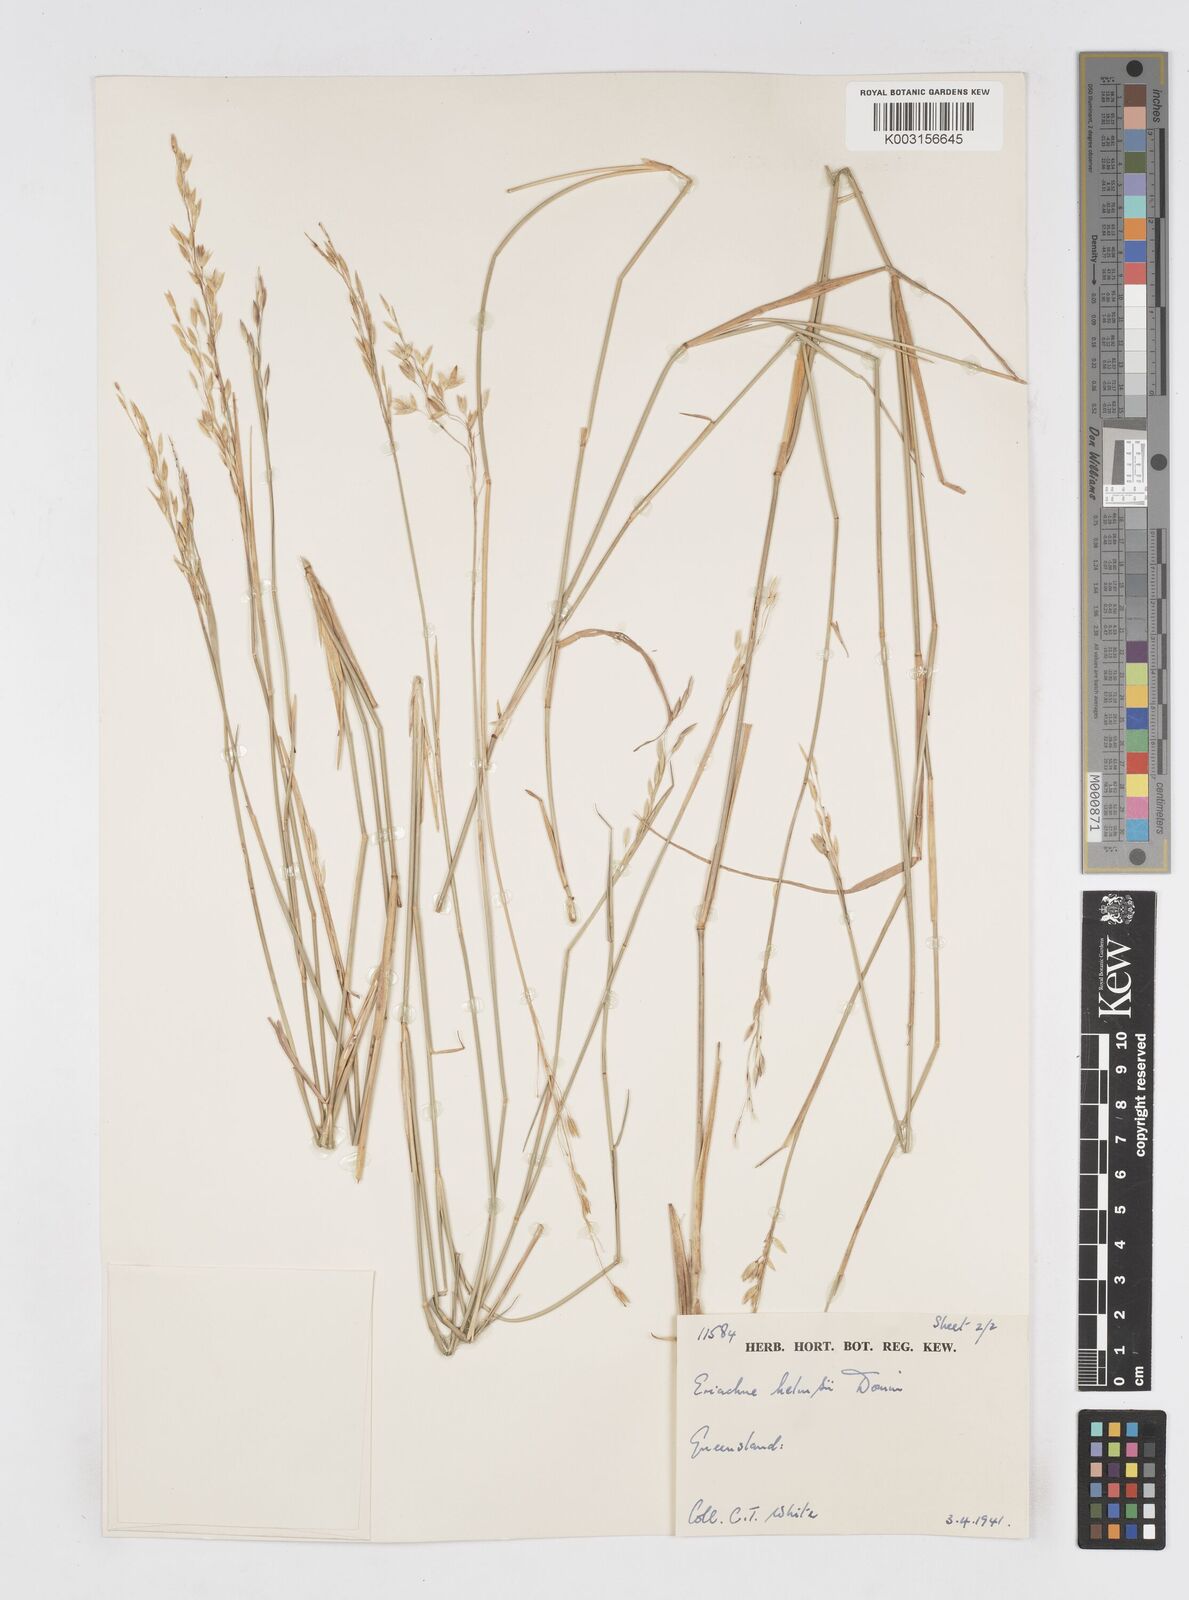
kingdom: Plantae
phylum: Tracheophyta
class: Liliopsida
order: Poales
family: Poaceae
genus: Eriachne
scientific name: Eriachne helmsii
